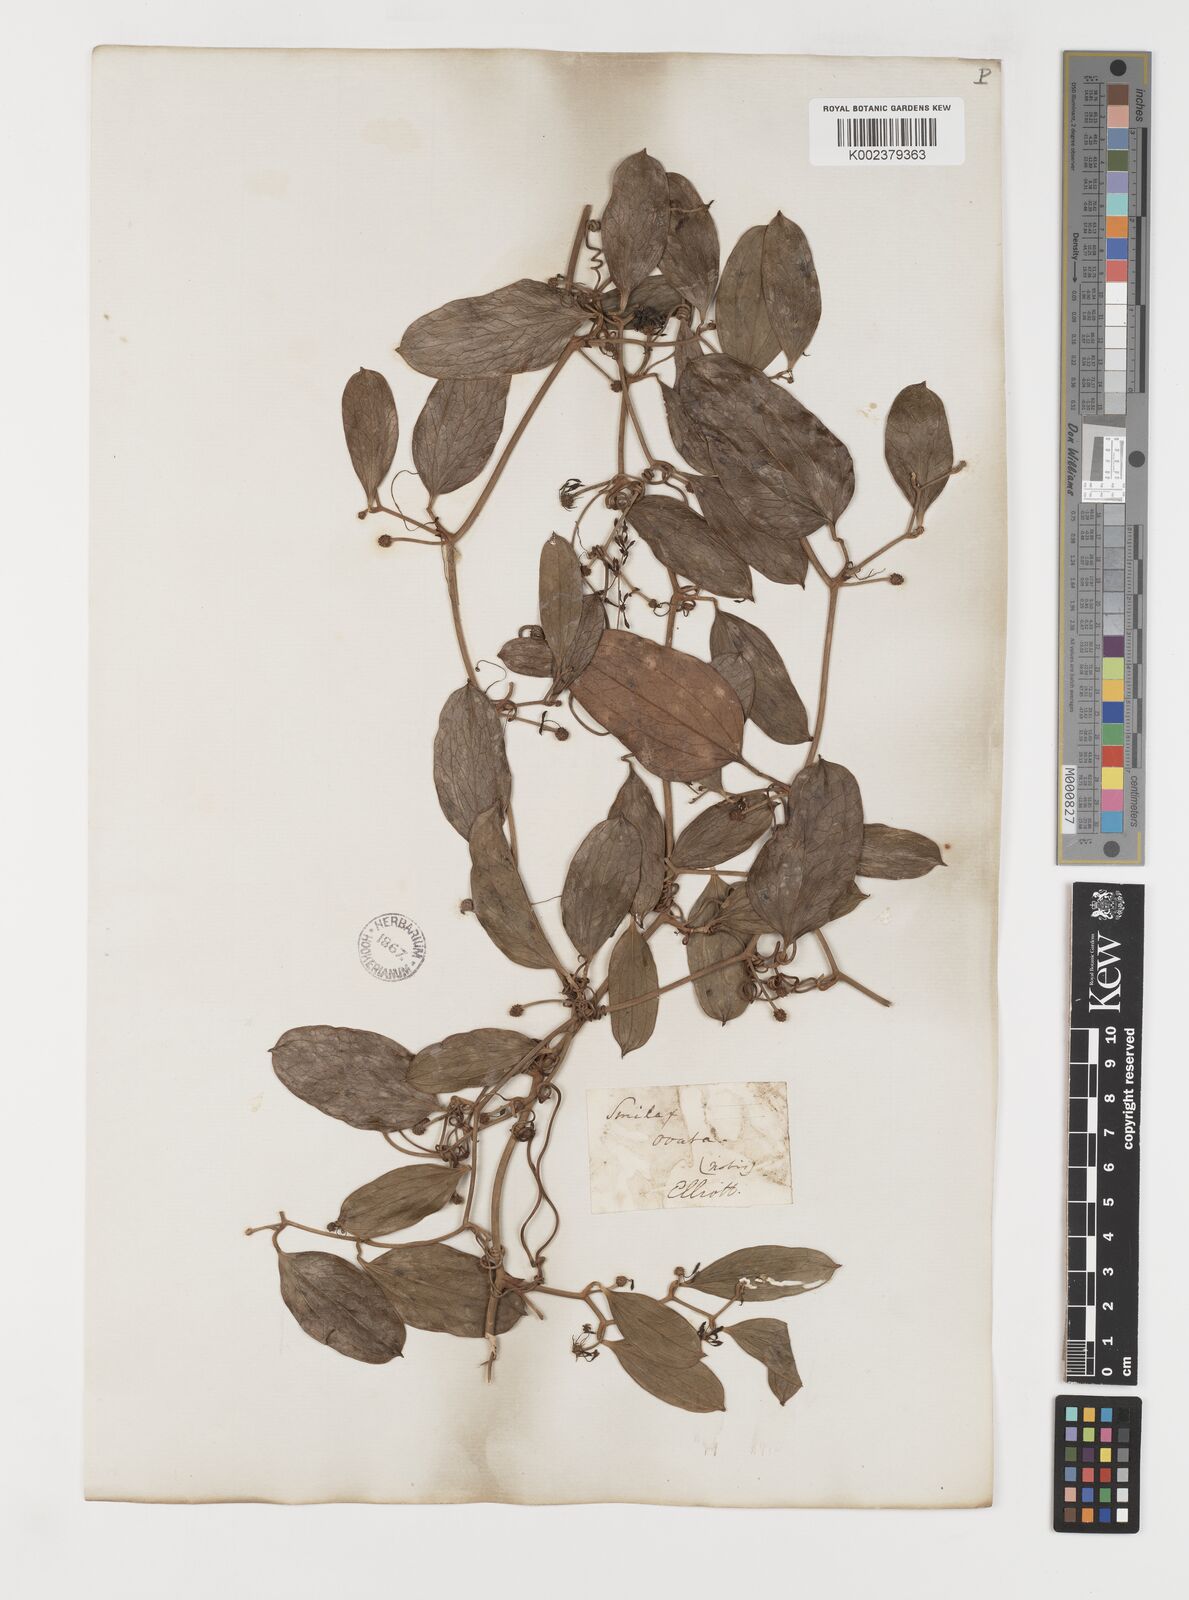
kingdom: Plantae
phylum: Tracheophyta
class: Liliopsida
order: Liliales
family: Smilacaceae
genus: Smilax
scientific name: Smilax maritima
